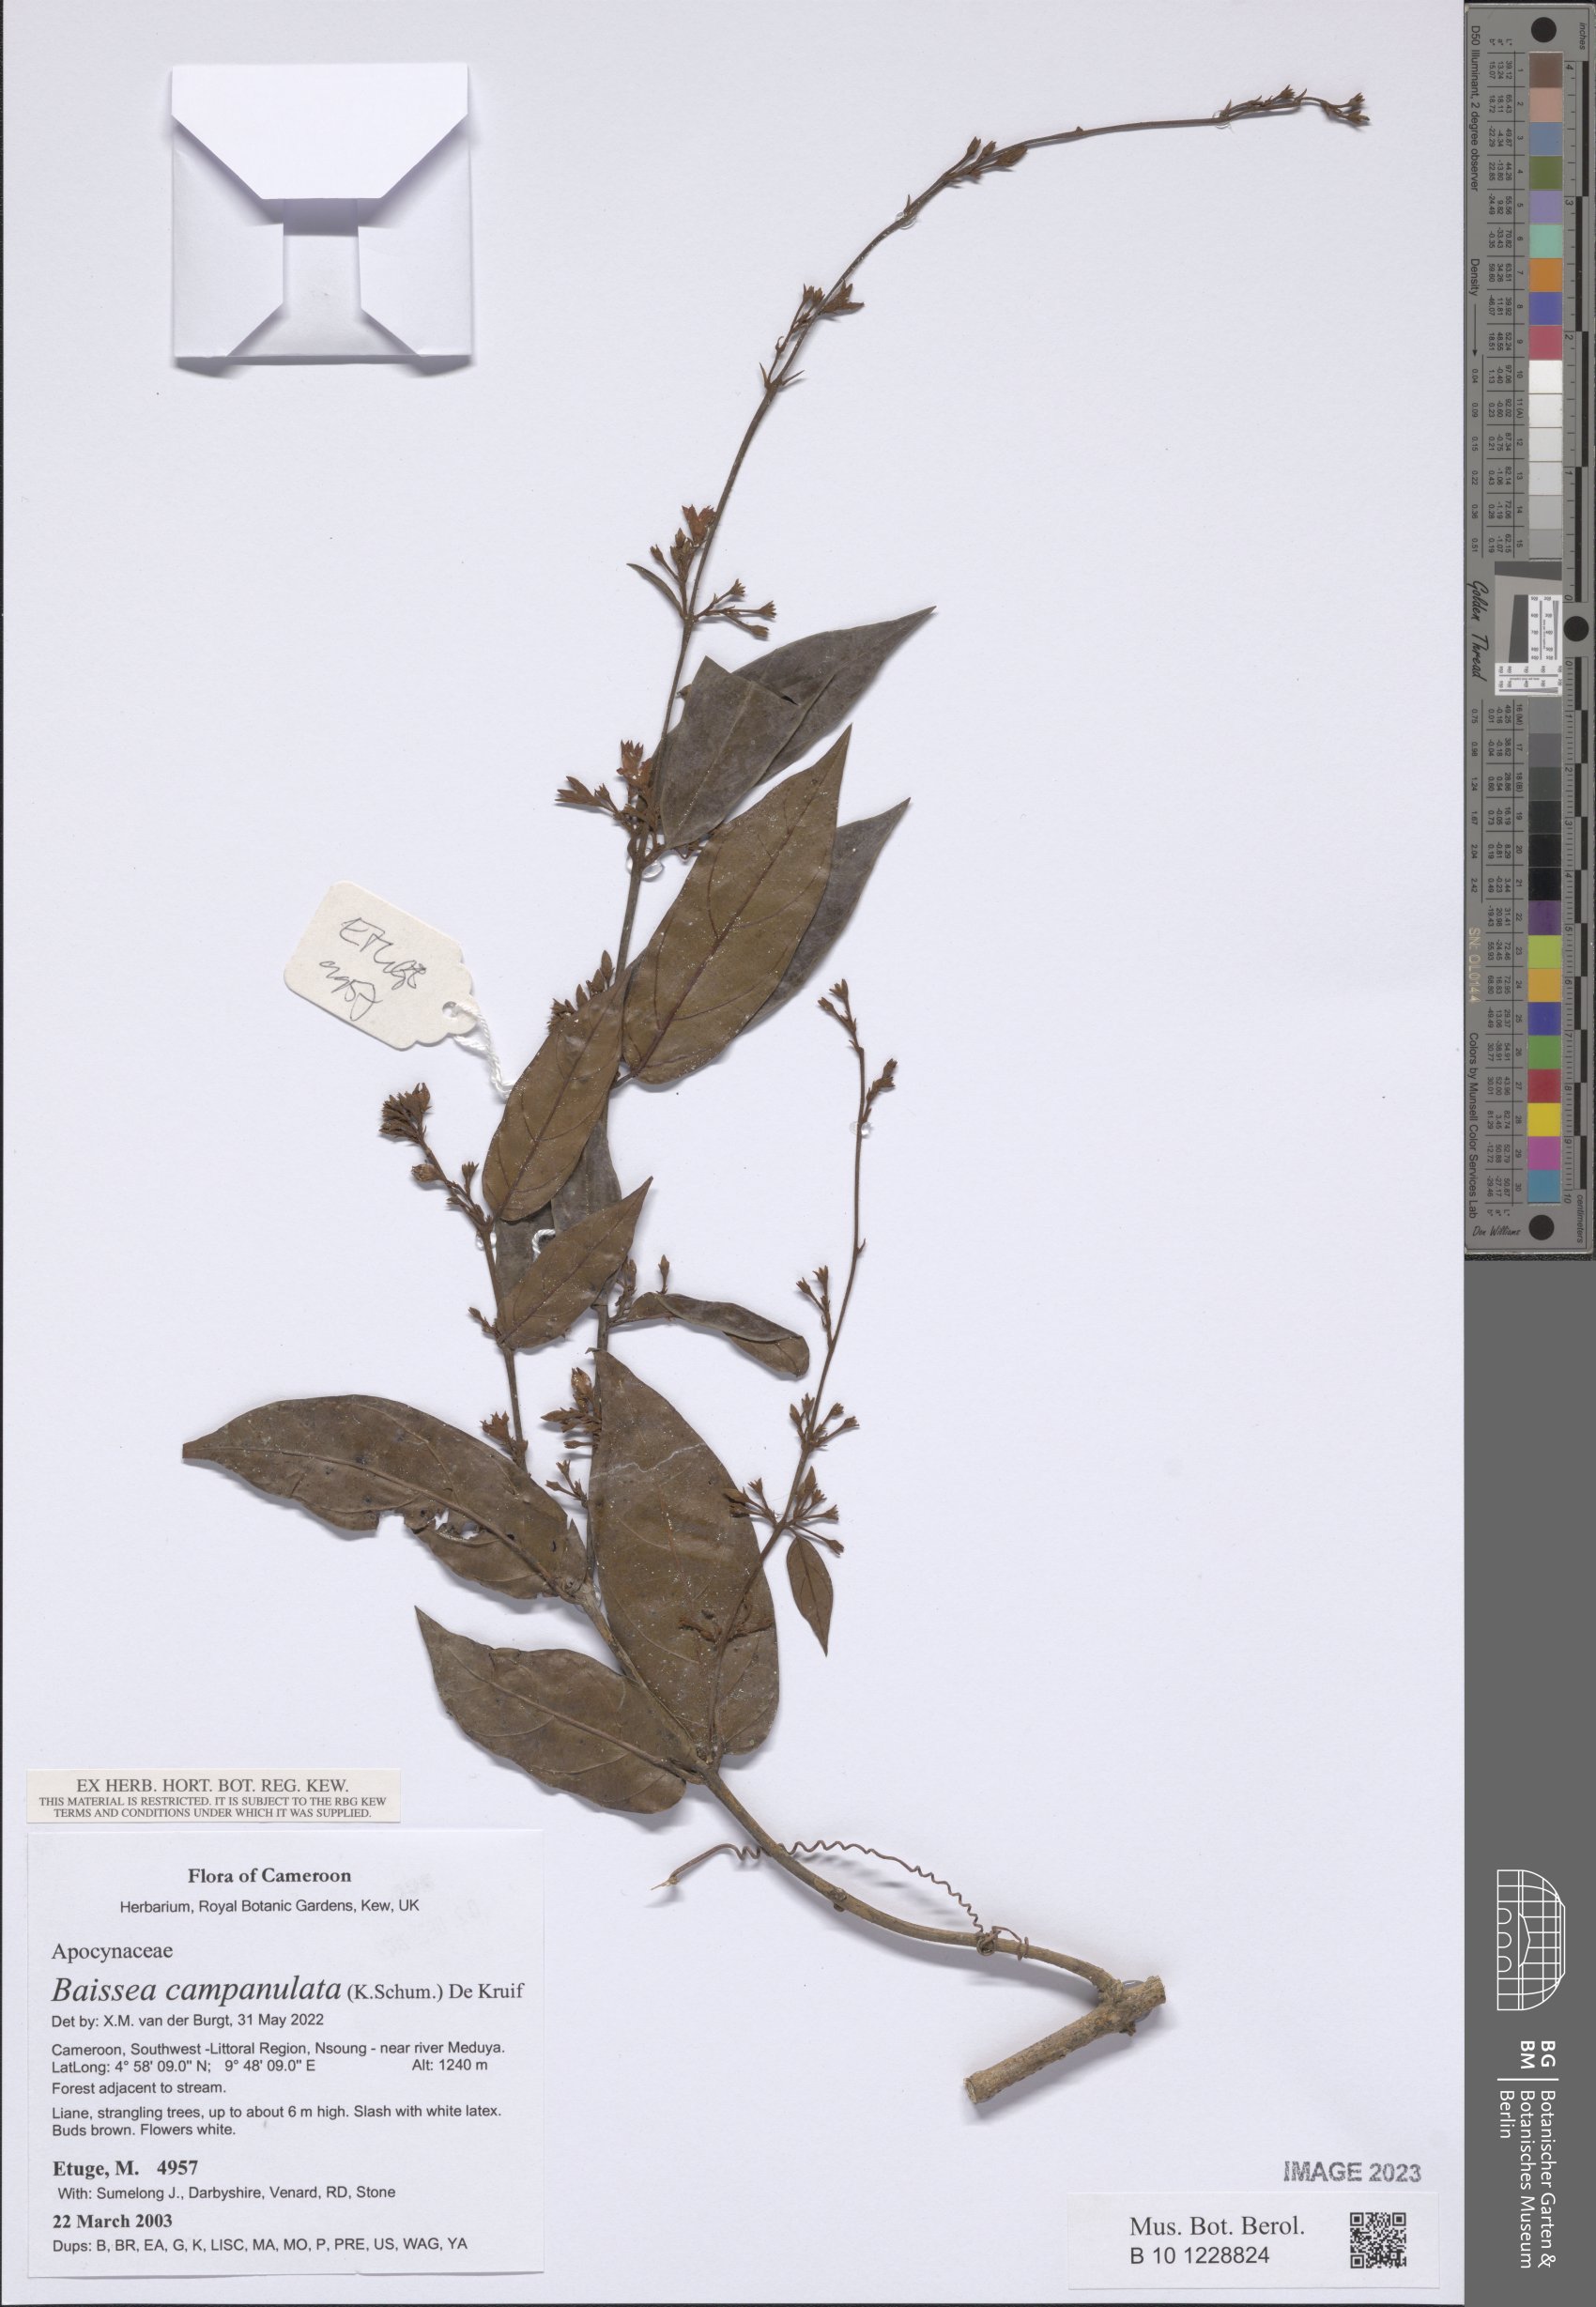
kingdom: Plantae
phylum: Tracheophyta
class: Magnoliopsida
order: Gentianales
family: Apocynaceae
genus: Baissea
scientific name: Baissea campanulata
